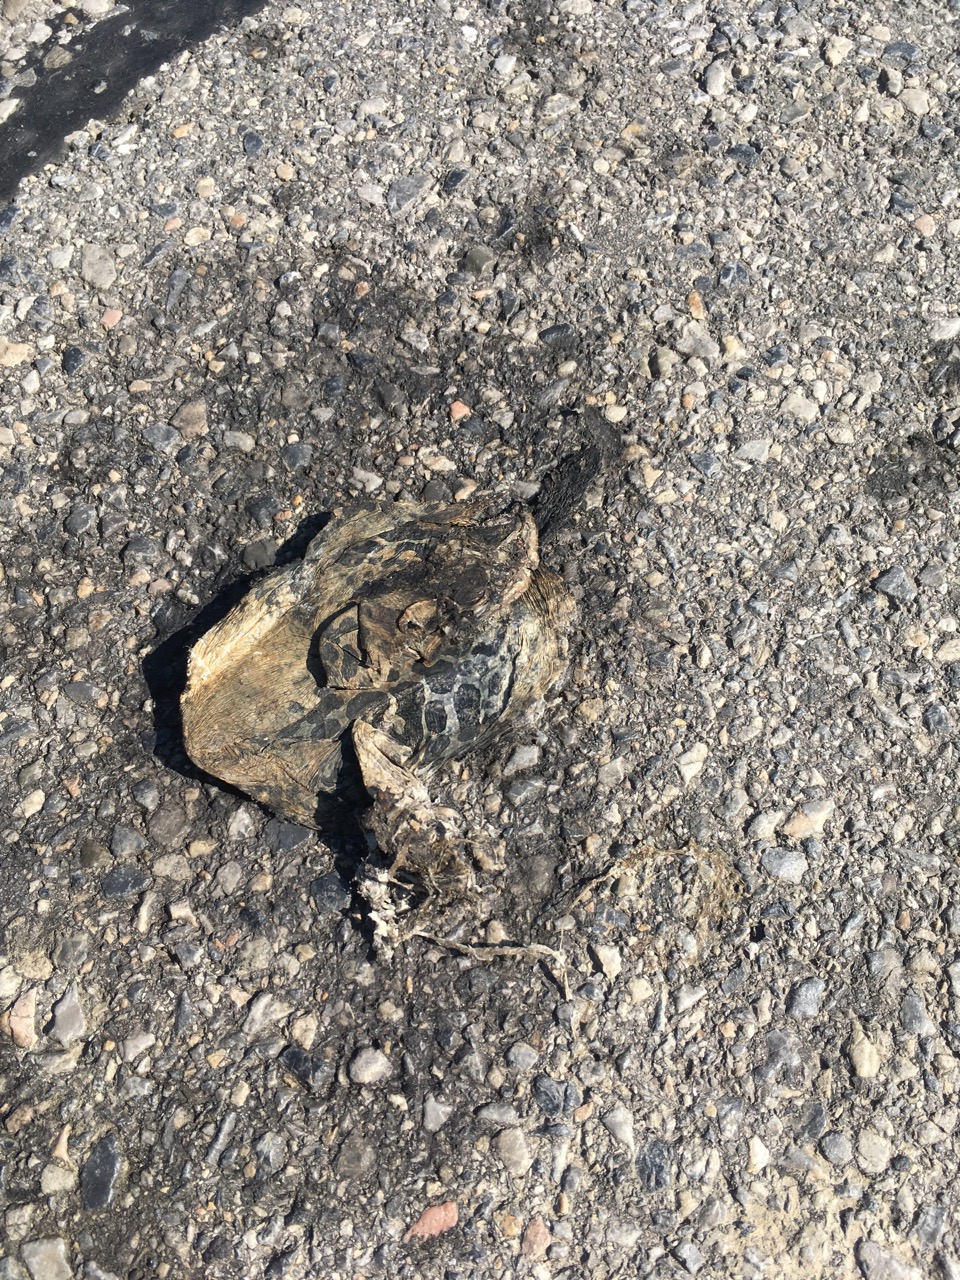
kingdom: Animalia
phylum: Chordata
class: Amphibia
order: Anura
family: Bufonidae
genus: Bufotes
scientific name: Bufotes viridis
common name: European green toad
